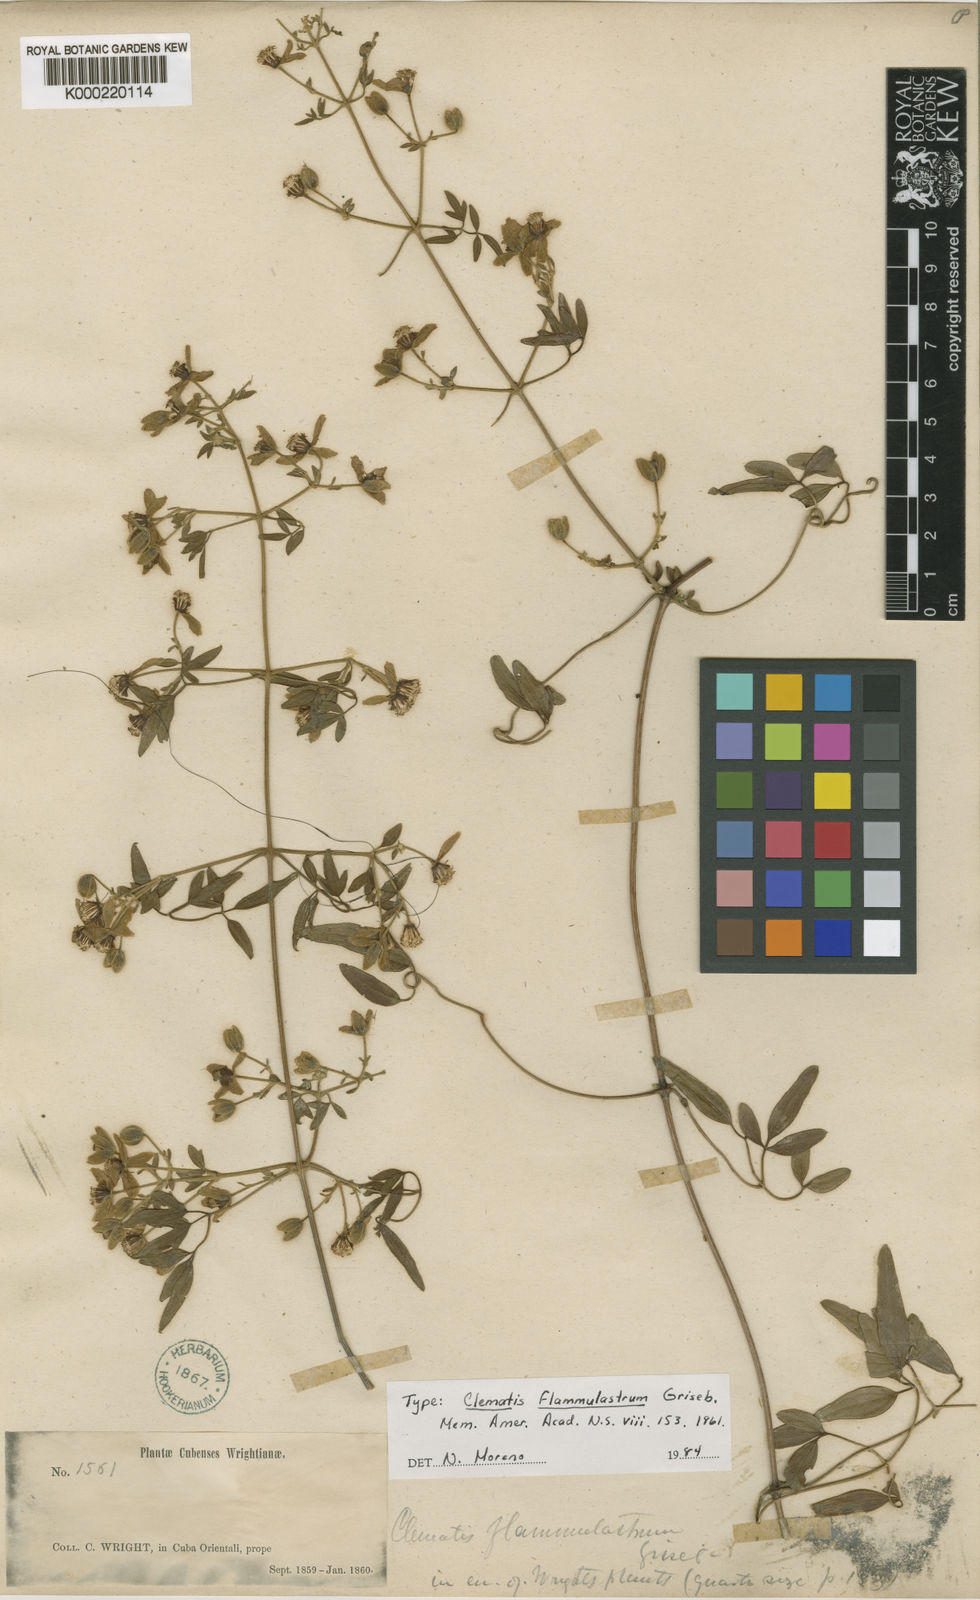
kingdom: Plantae
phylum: Tracheophyta
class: Magnoliopsida
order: Ranunculales
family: Ranunculaceae
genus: Clematis
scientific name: Clematis flammulastrum
